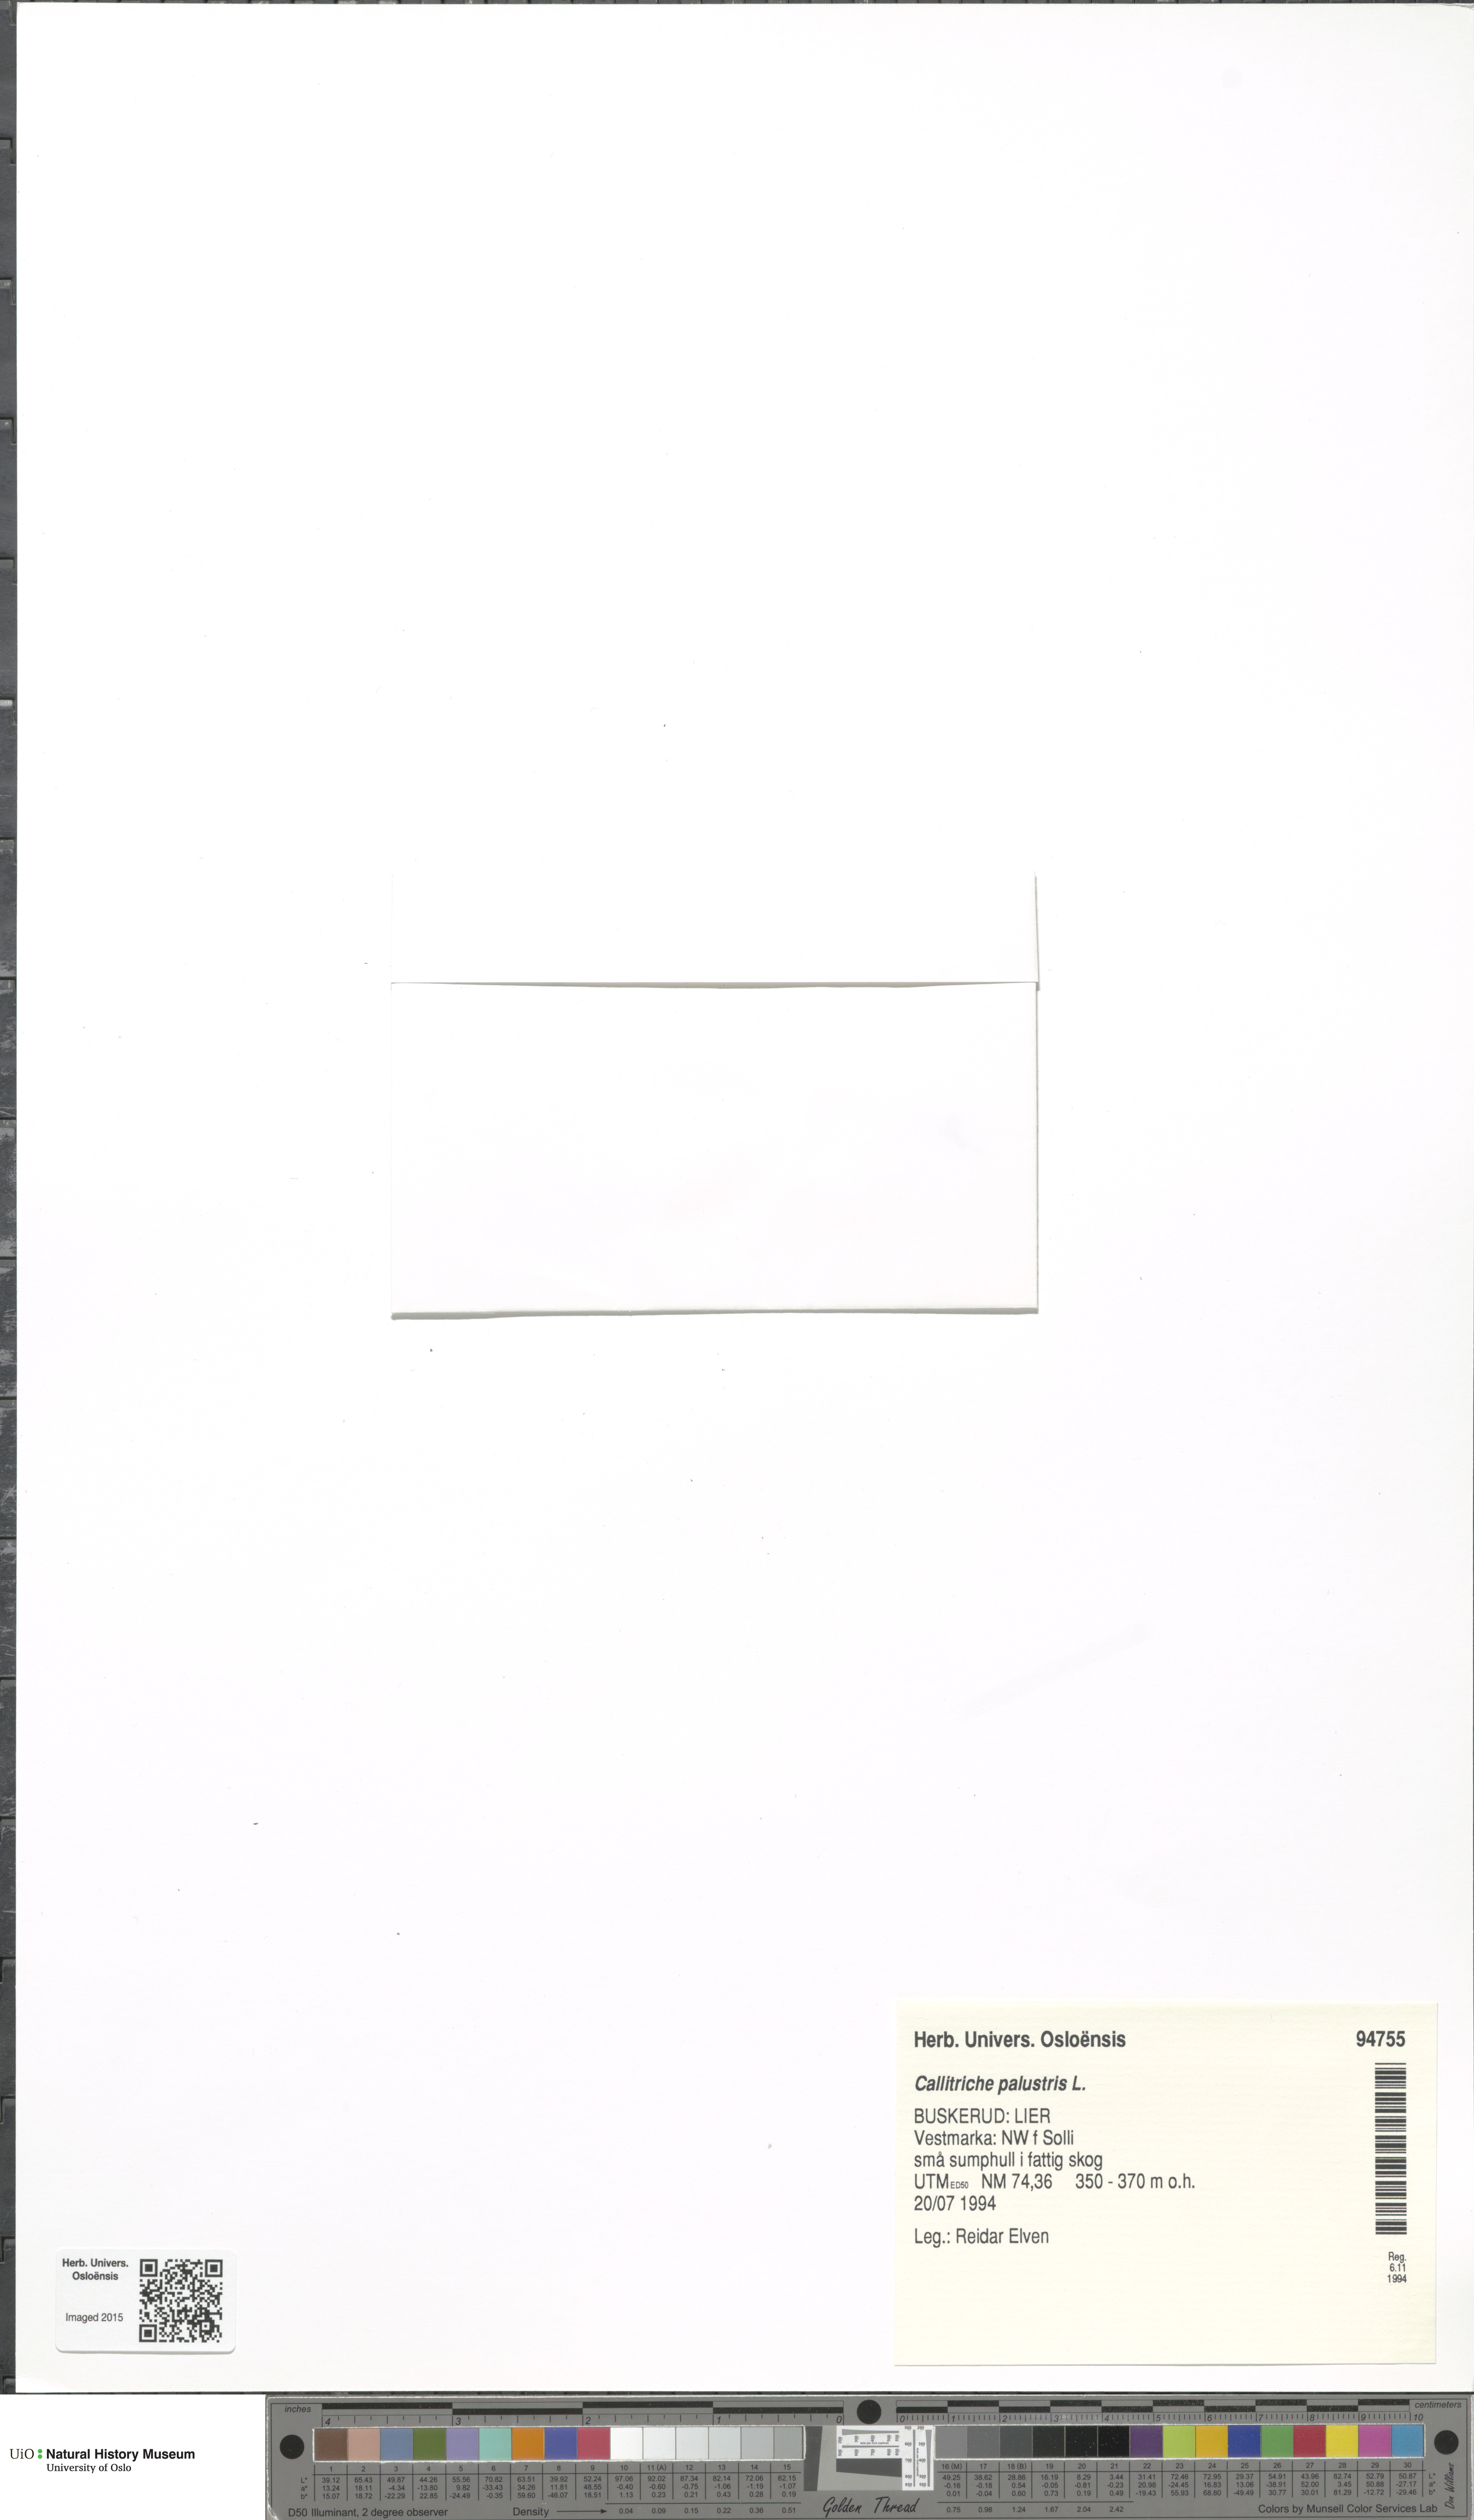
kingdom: Plantae
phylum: Tracheophyta
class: Magnoliopsida
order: Lamiales
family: Plantaginaceae
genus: Callitriche
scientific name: Callitriche palustris
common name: Spring water-starwort
